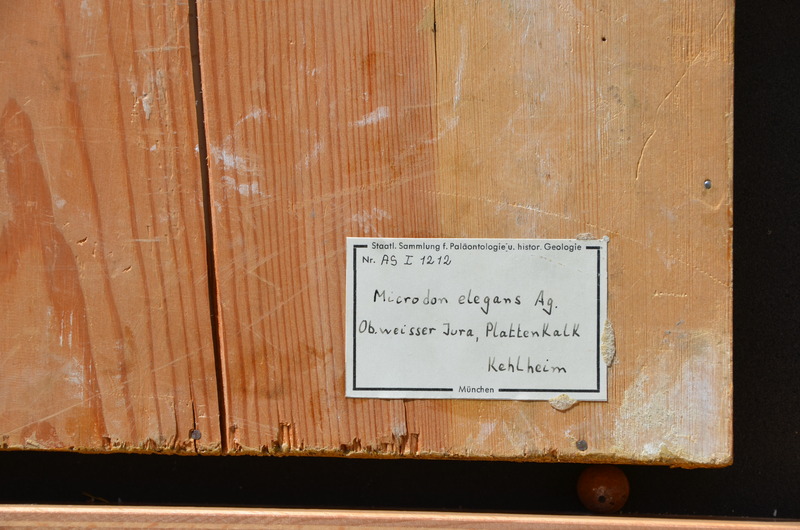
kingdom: Animalia
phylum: Chordata
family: Pycnodontidae
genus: Proscinetes
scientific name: Proscinetes elegans
